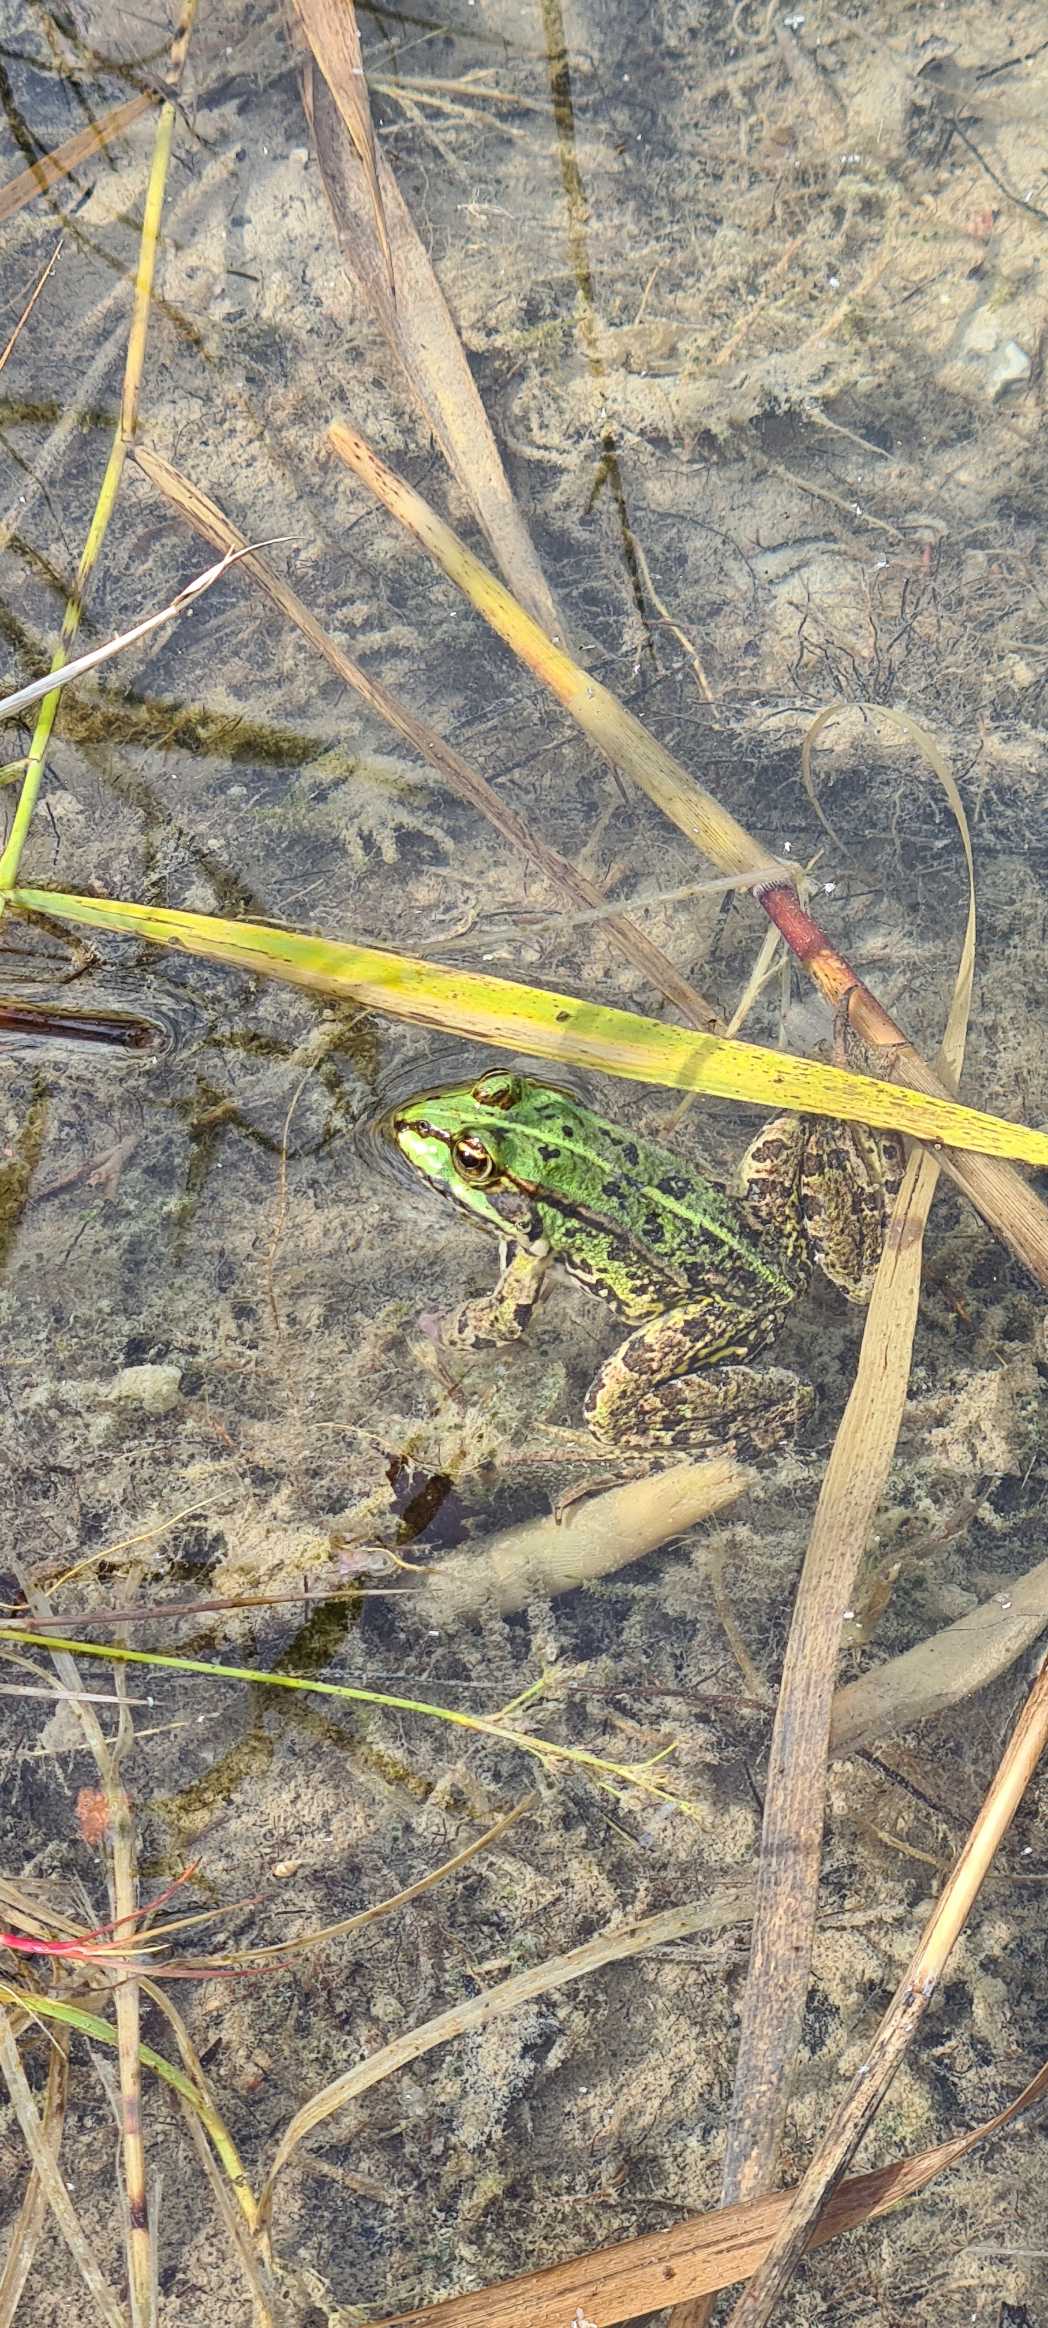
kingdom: Animalia
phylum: Chordata
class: Amphibia
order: Anura
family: Ranidae
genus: Pelophylax
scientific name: Pelophylax lessonae
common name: Grøn frø
